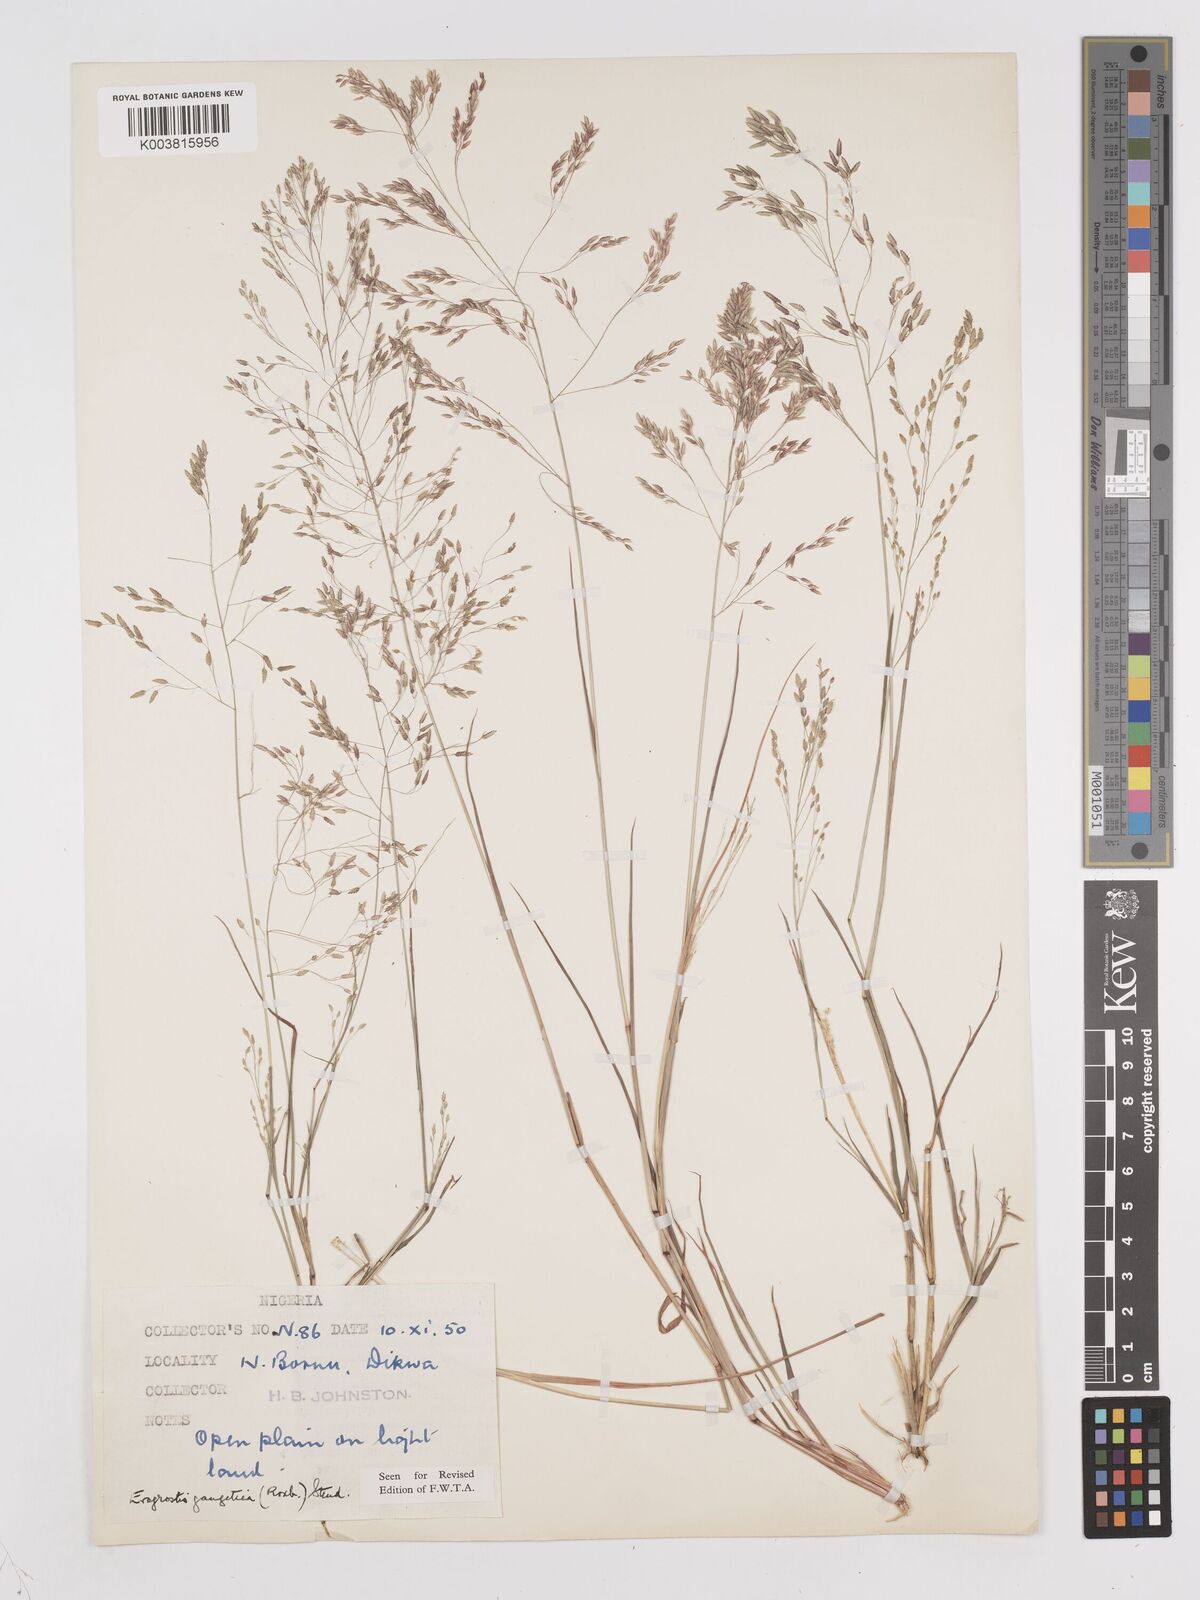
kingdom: Plantae
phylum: Tracheophyta
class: Liliopsida
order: Poales
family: Poaceae
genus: Eragrostis
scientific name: Eragrostis gangetica
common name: Slimflower lovegrass
